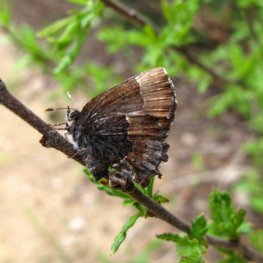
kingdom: Animalia
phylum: Arthropoda
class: Insecta
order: Lepidoptera
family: Lycaenidae
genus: Incisalia
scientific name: Incisalia henrici
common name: Henry's Elfin
